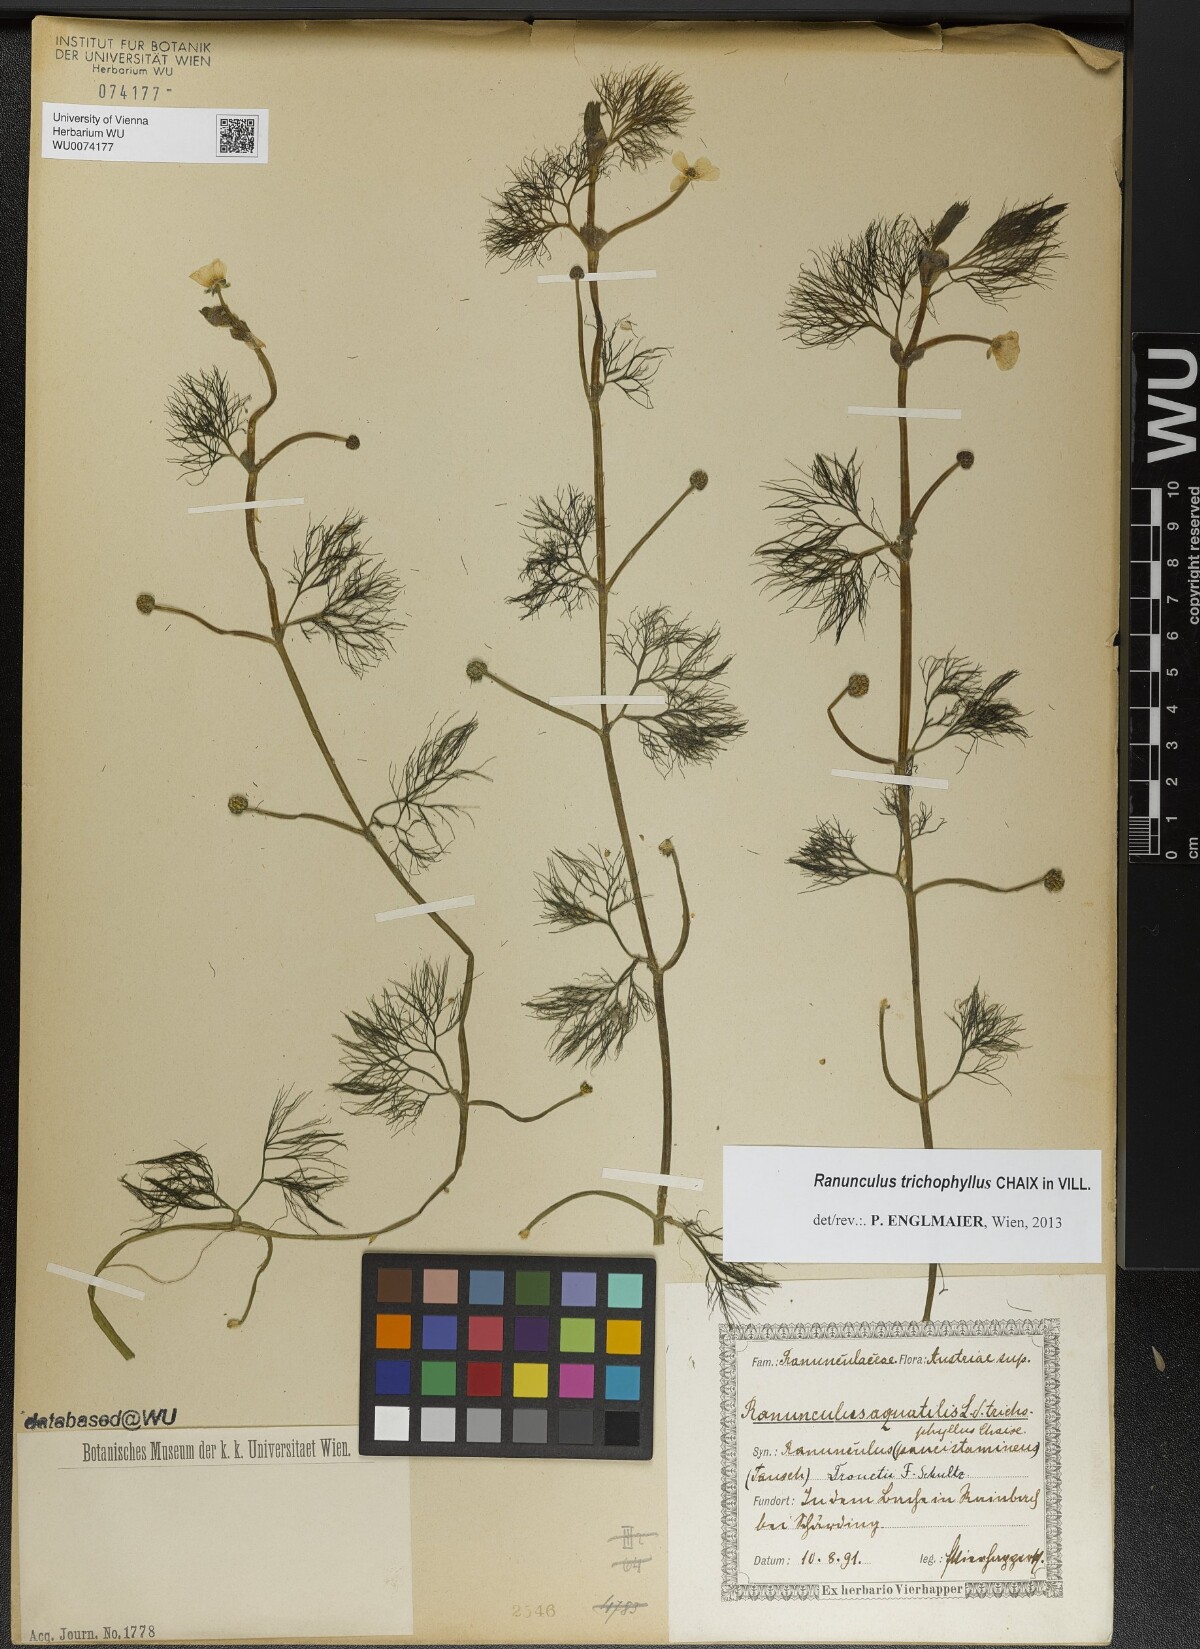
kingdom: Plantae
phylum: Tracheophyta
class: Magnoliopsida
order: Ranunculales
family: Ranunculaceae
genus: Ranunculus
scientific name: Ranunculus trichophyllus
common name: Thread-leaved water-crowfoot
